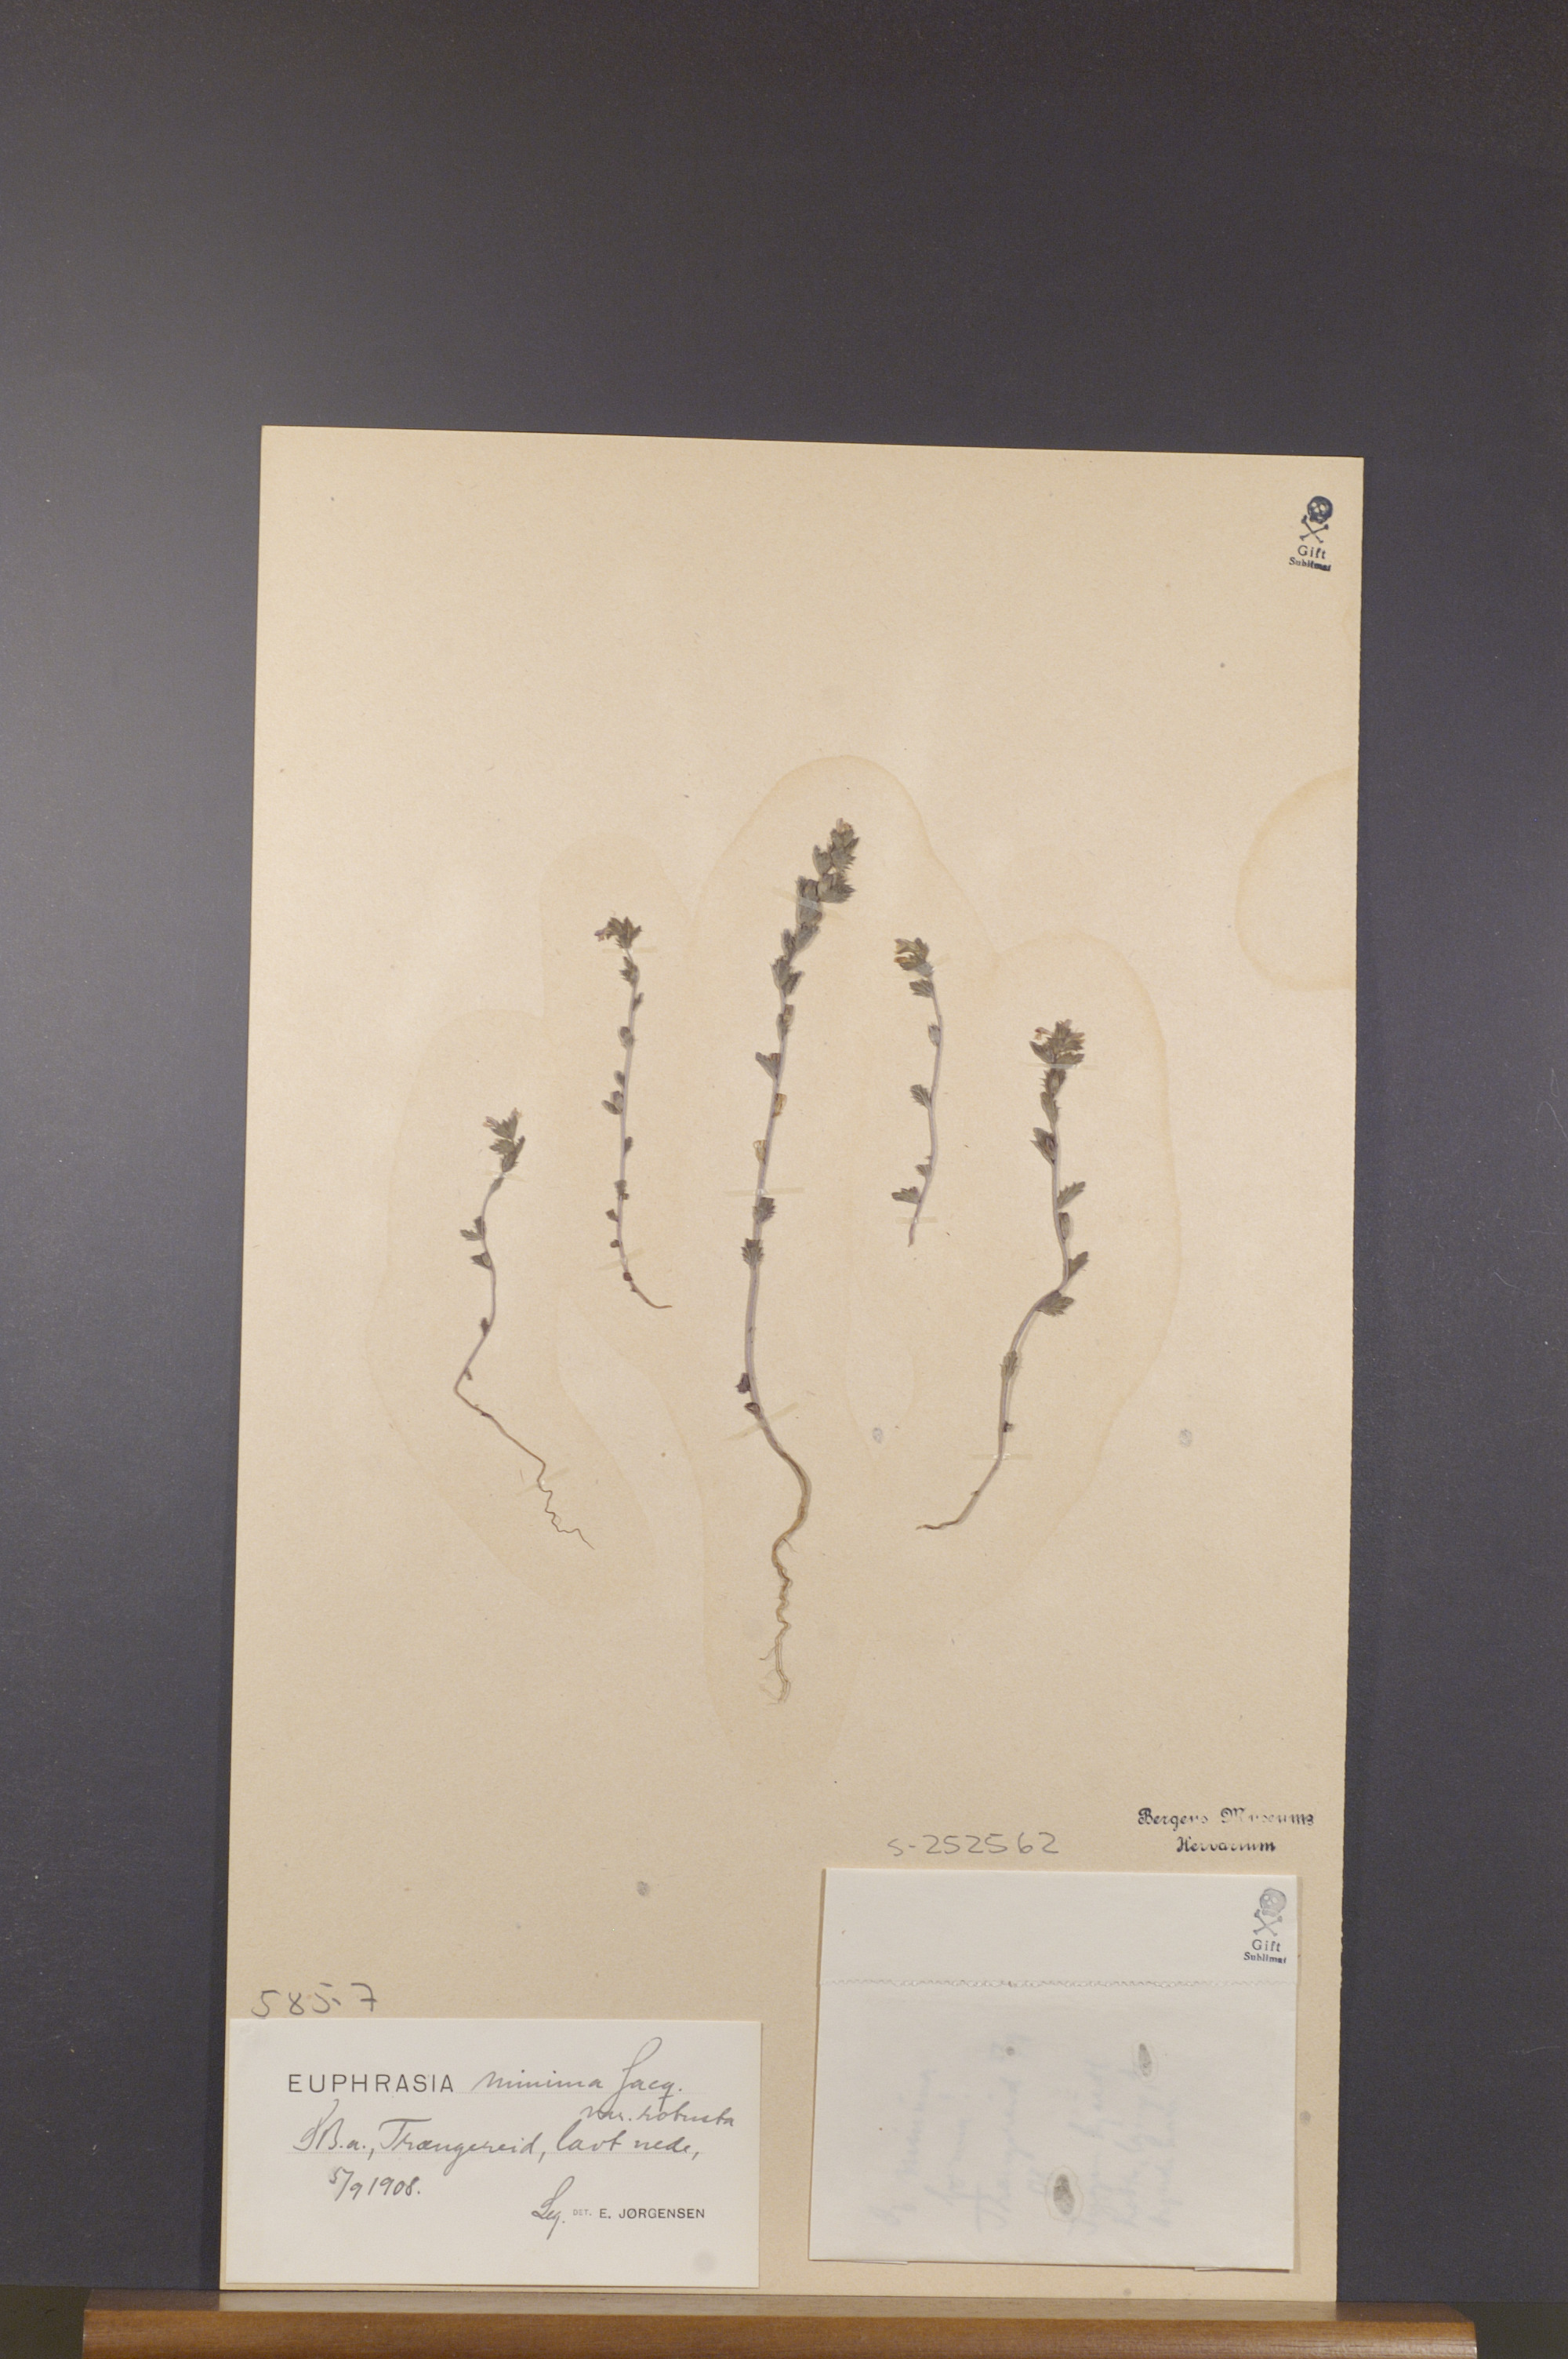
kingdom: Plantae
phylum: Tracheophyta
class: Magnoliopsida
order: Lamiales
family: Orobanchaceae
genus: Euphrasia
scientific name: Euphrasia minima
